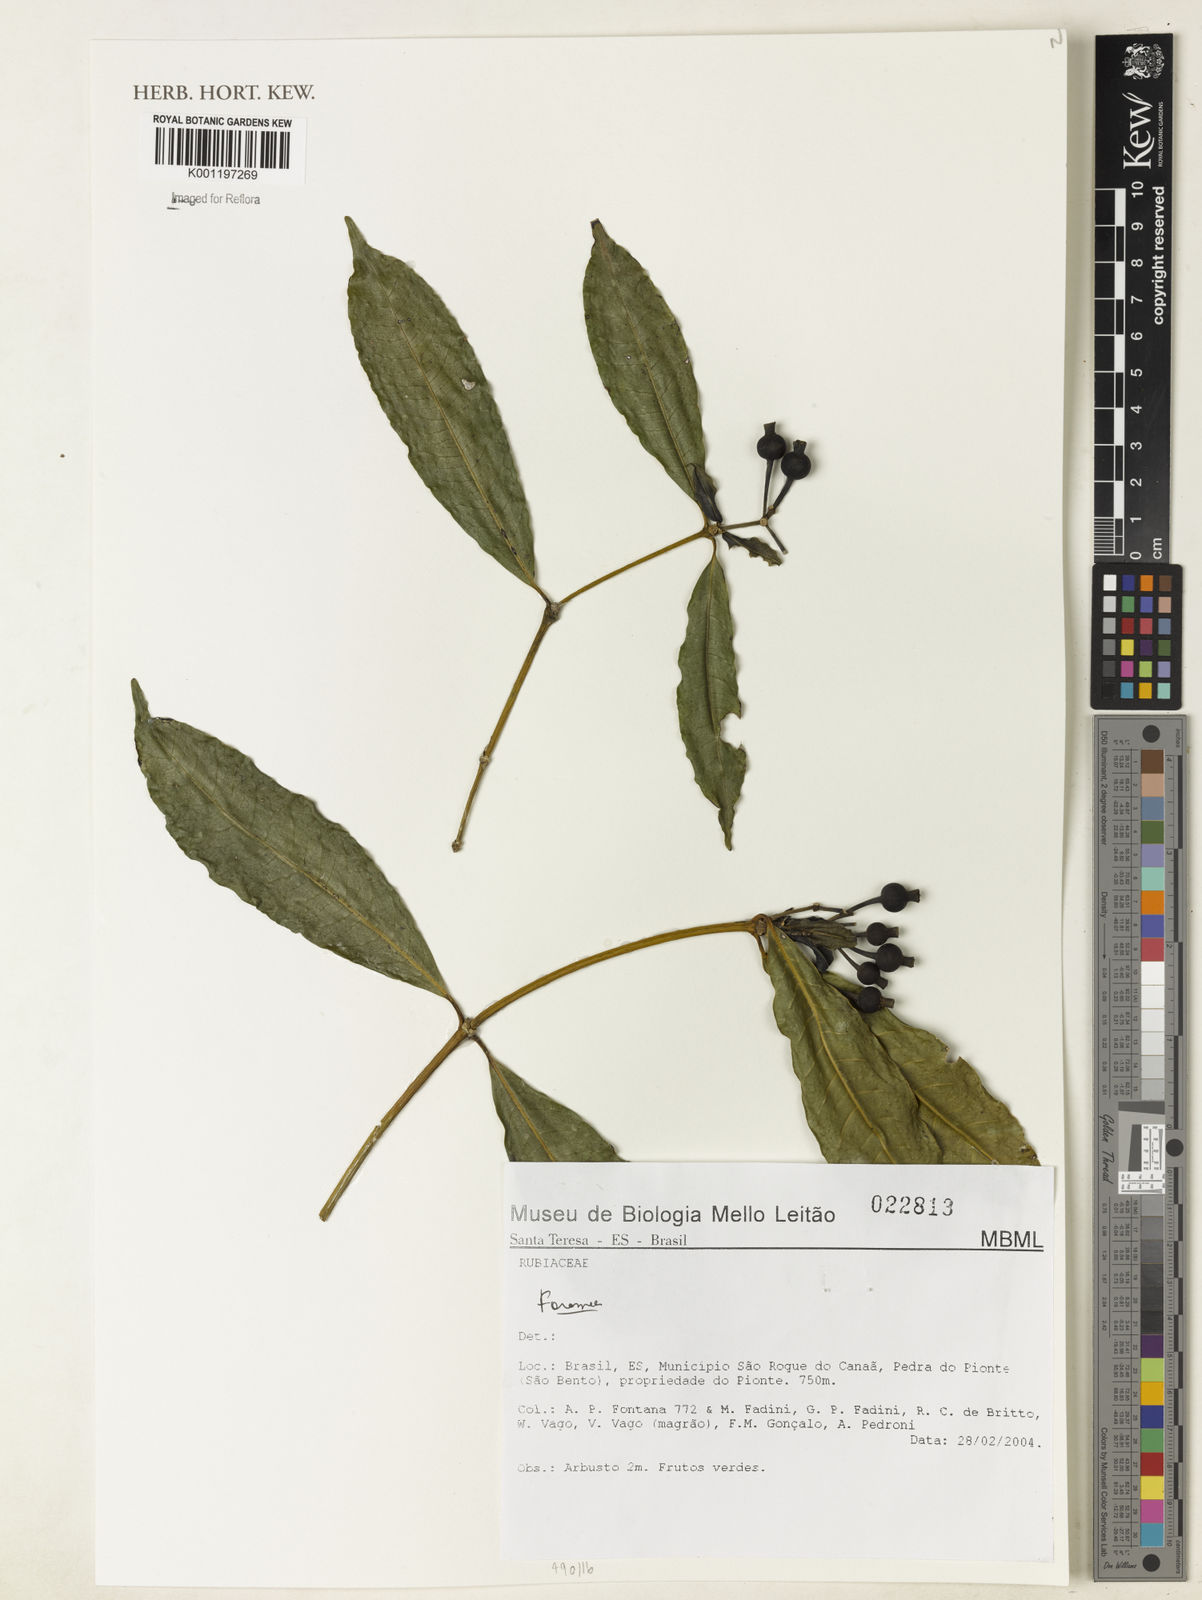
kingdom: Plantae
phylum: Tracheophyta
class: Magnoliopsida
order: Gentianales
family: Rubiaceae
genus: Faramea
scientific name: Faramea
